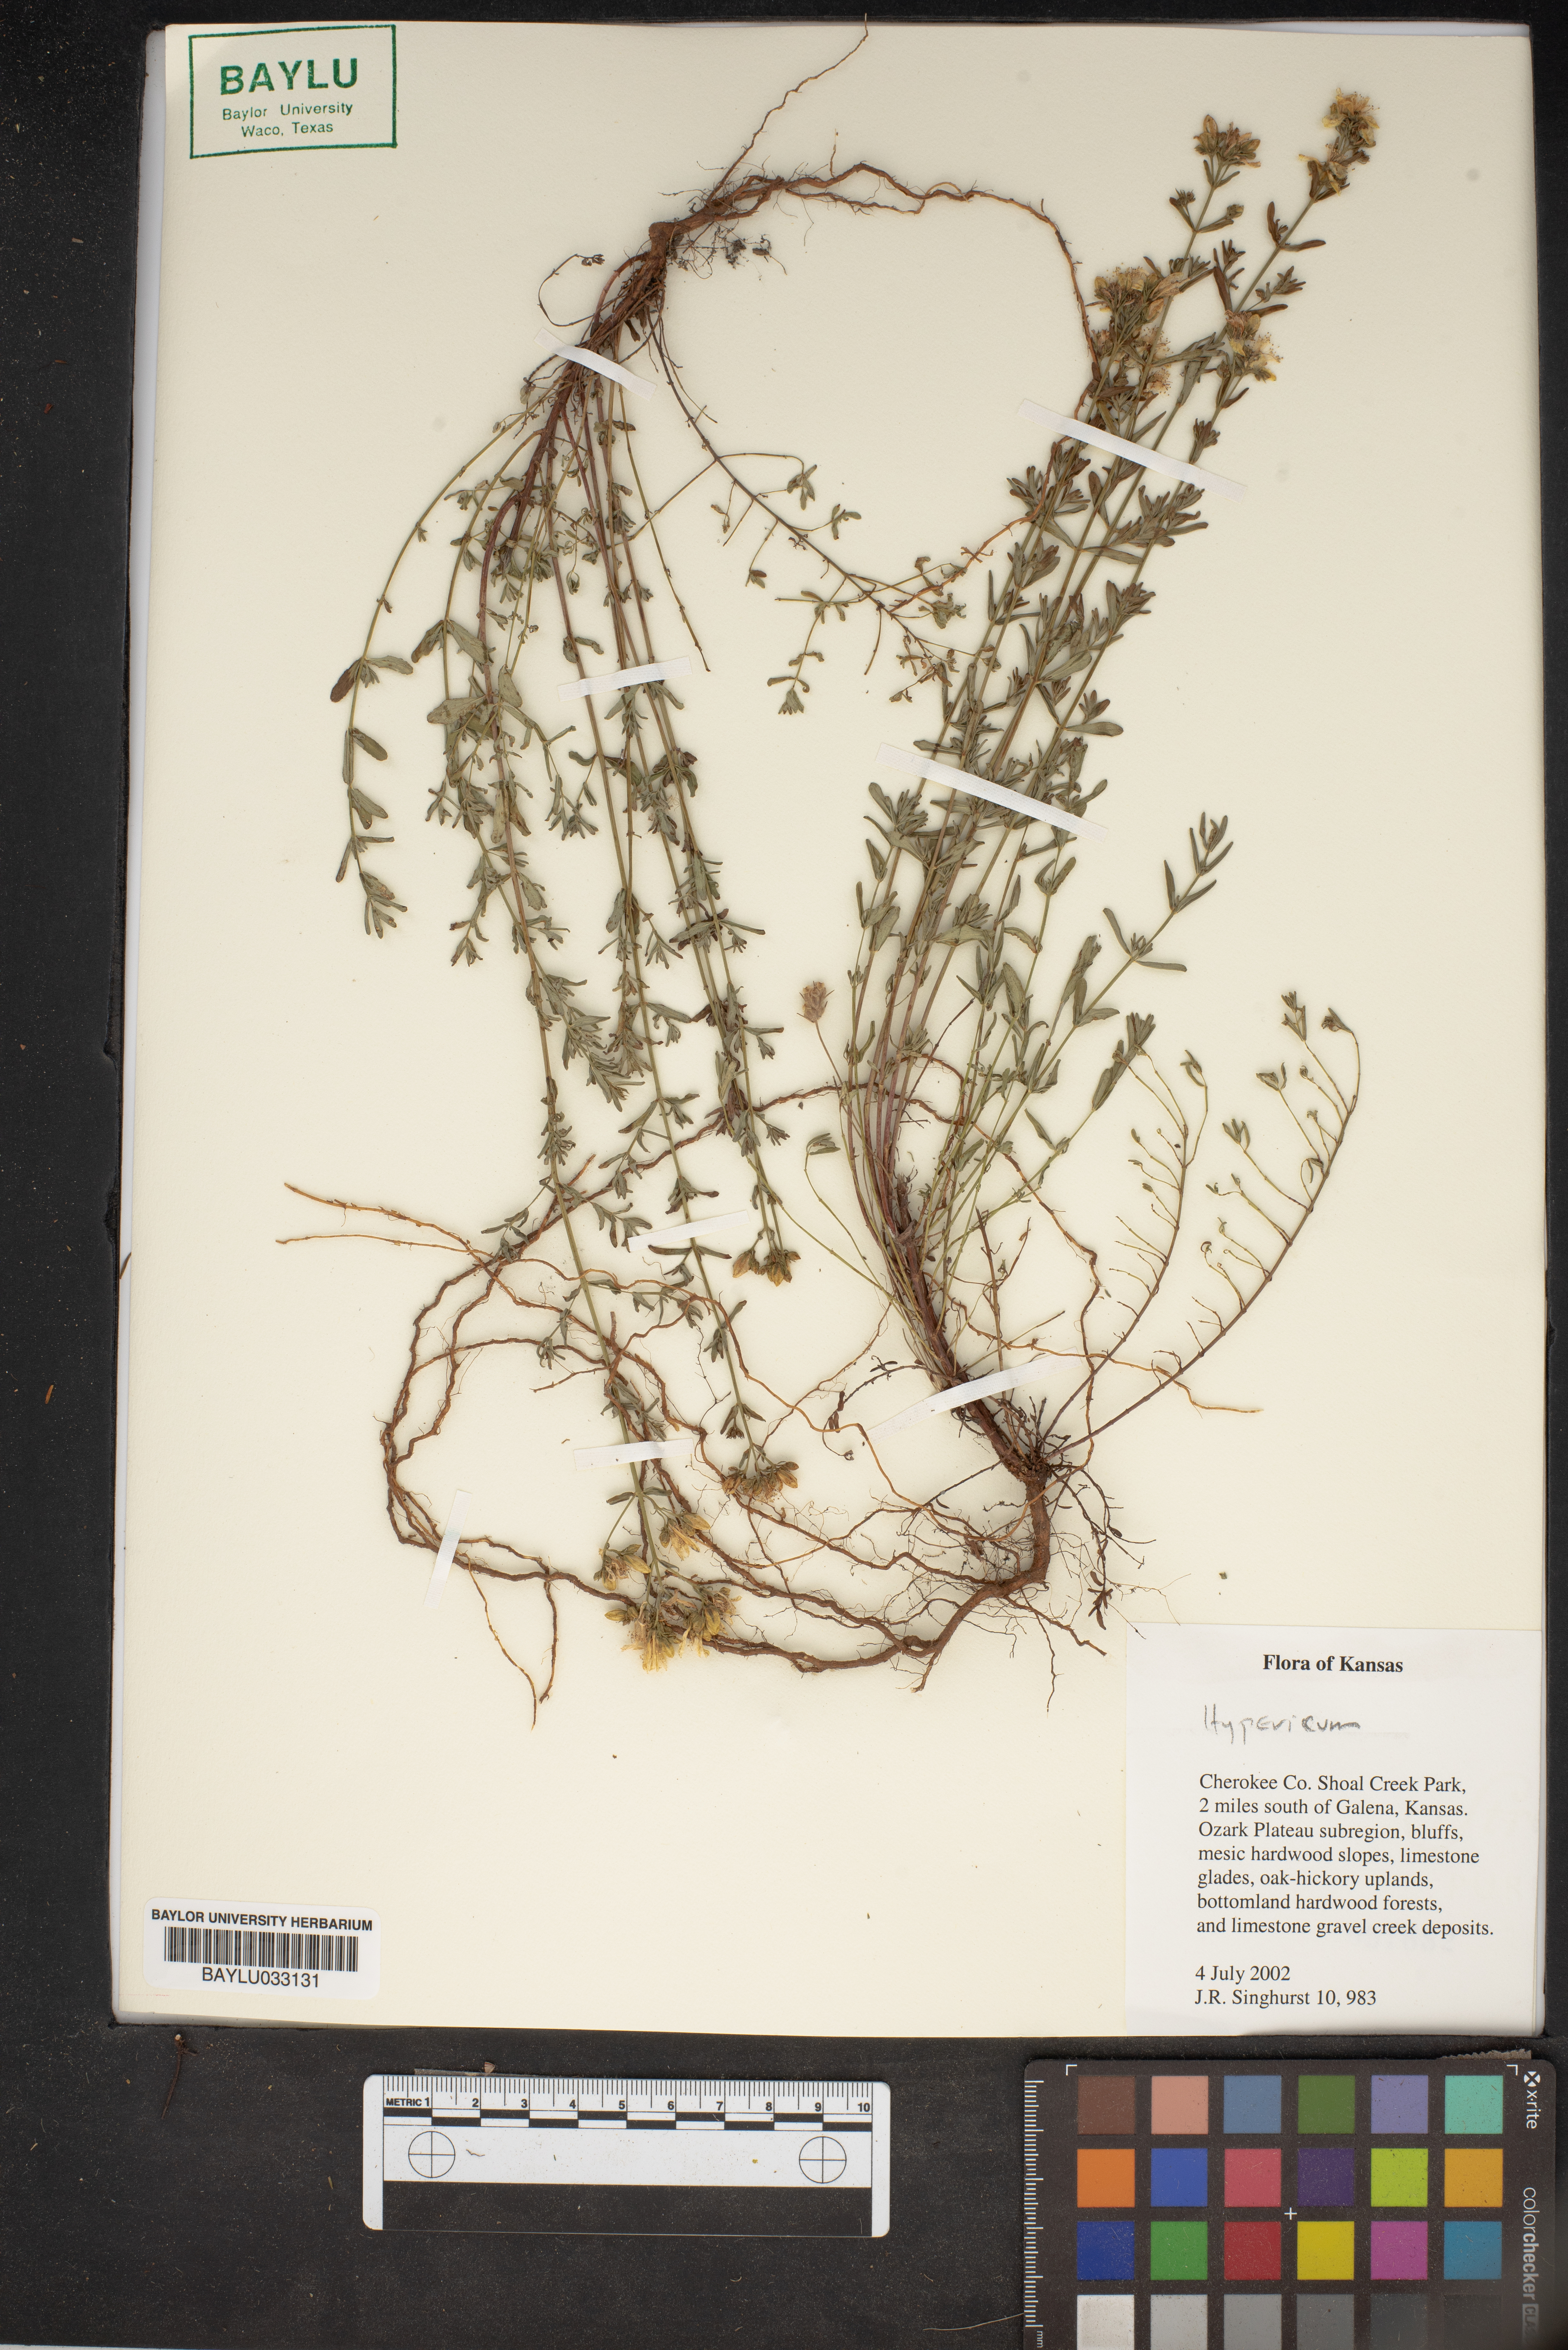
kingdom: Plantae
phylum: Tracheophyta
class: Magnoliopsida
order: Malpighiales
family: Hypericaceae
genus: Hypericum
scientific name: Hypericum
